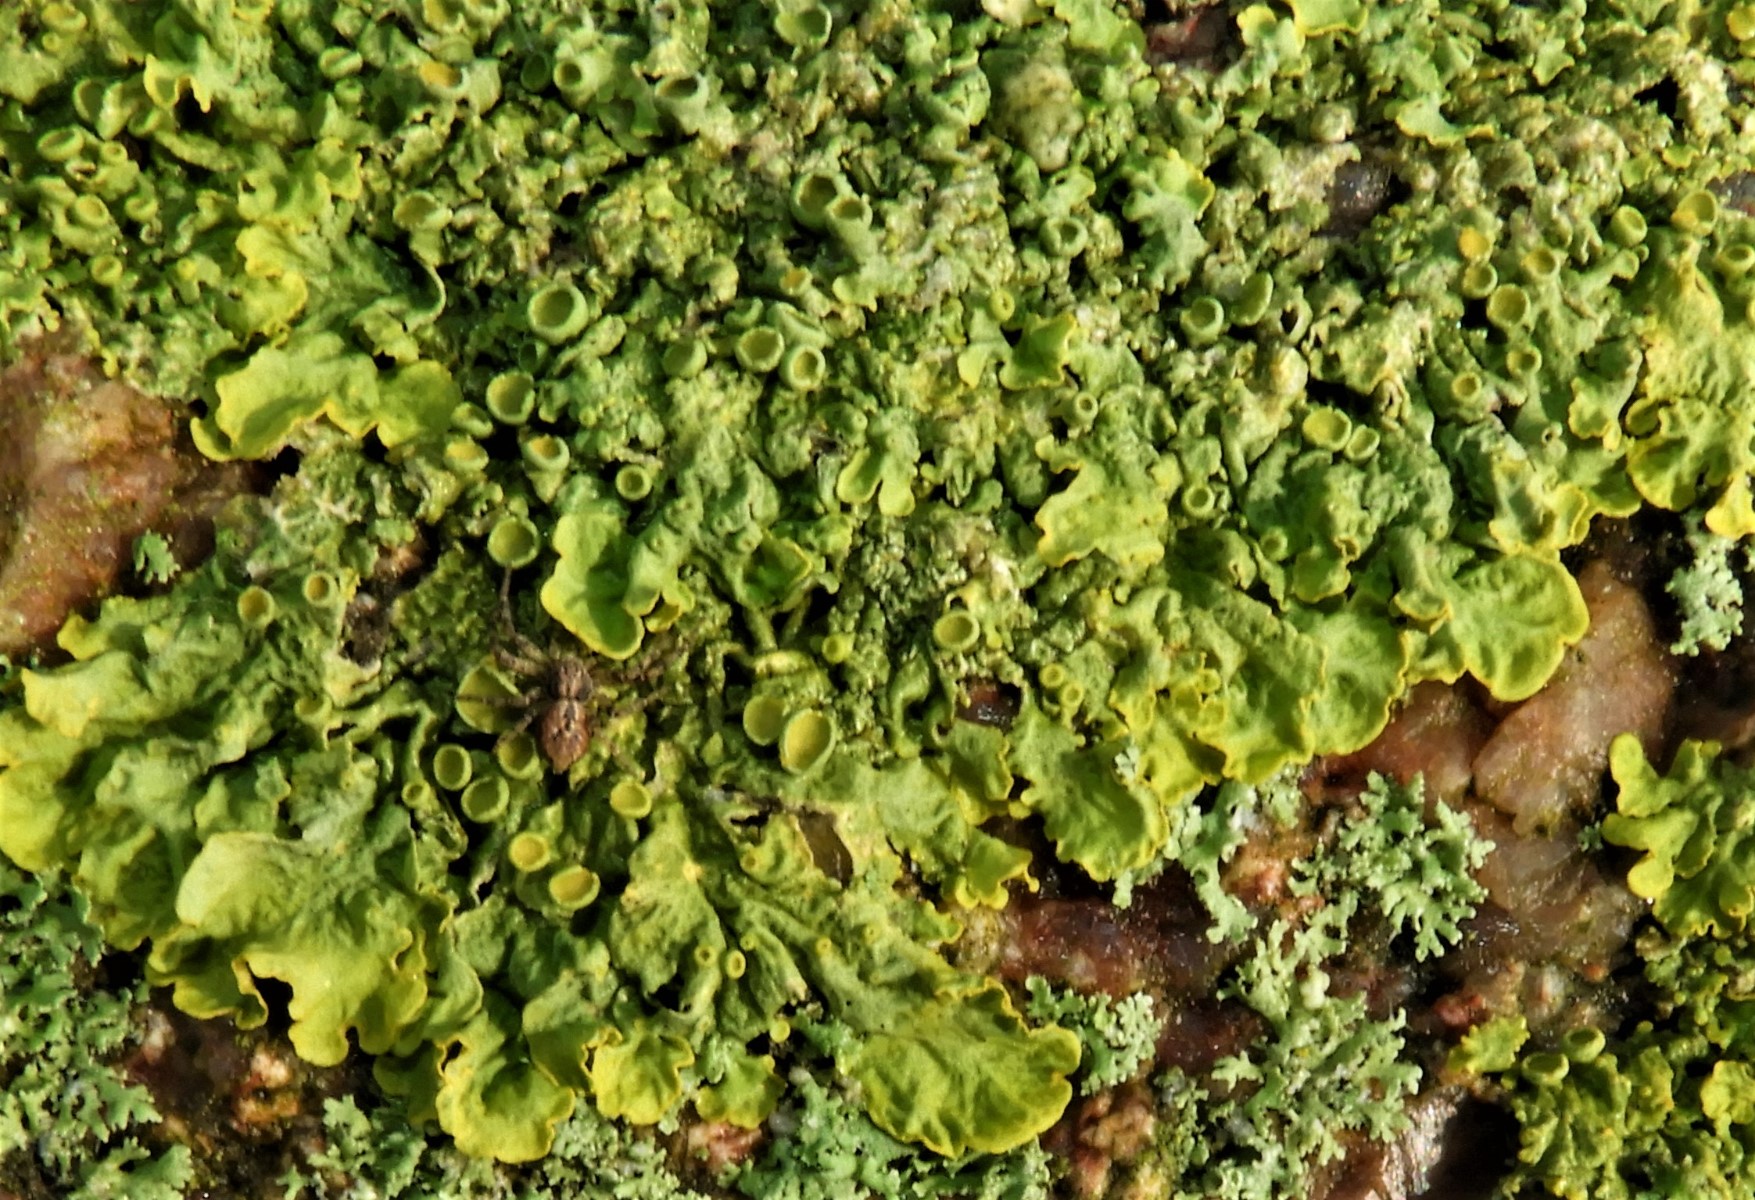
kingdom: Fungi
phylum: Ascomycota
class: Lecanoromycetes
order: Teloschistales
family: Teloschistaceae
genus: Xanthoria
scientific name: Xanthoria parietina
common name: almindelig væggelav
